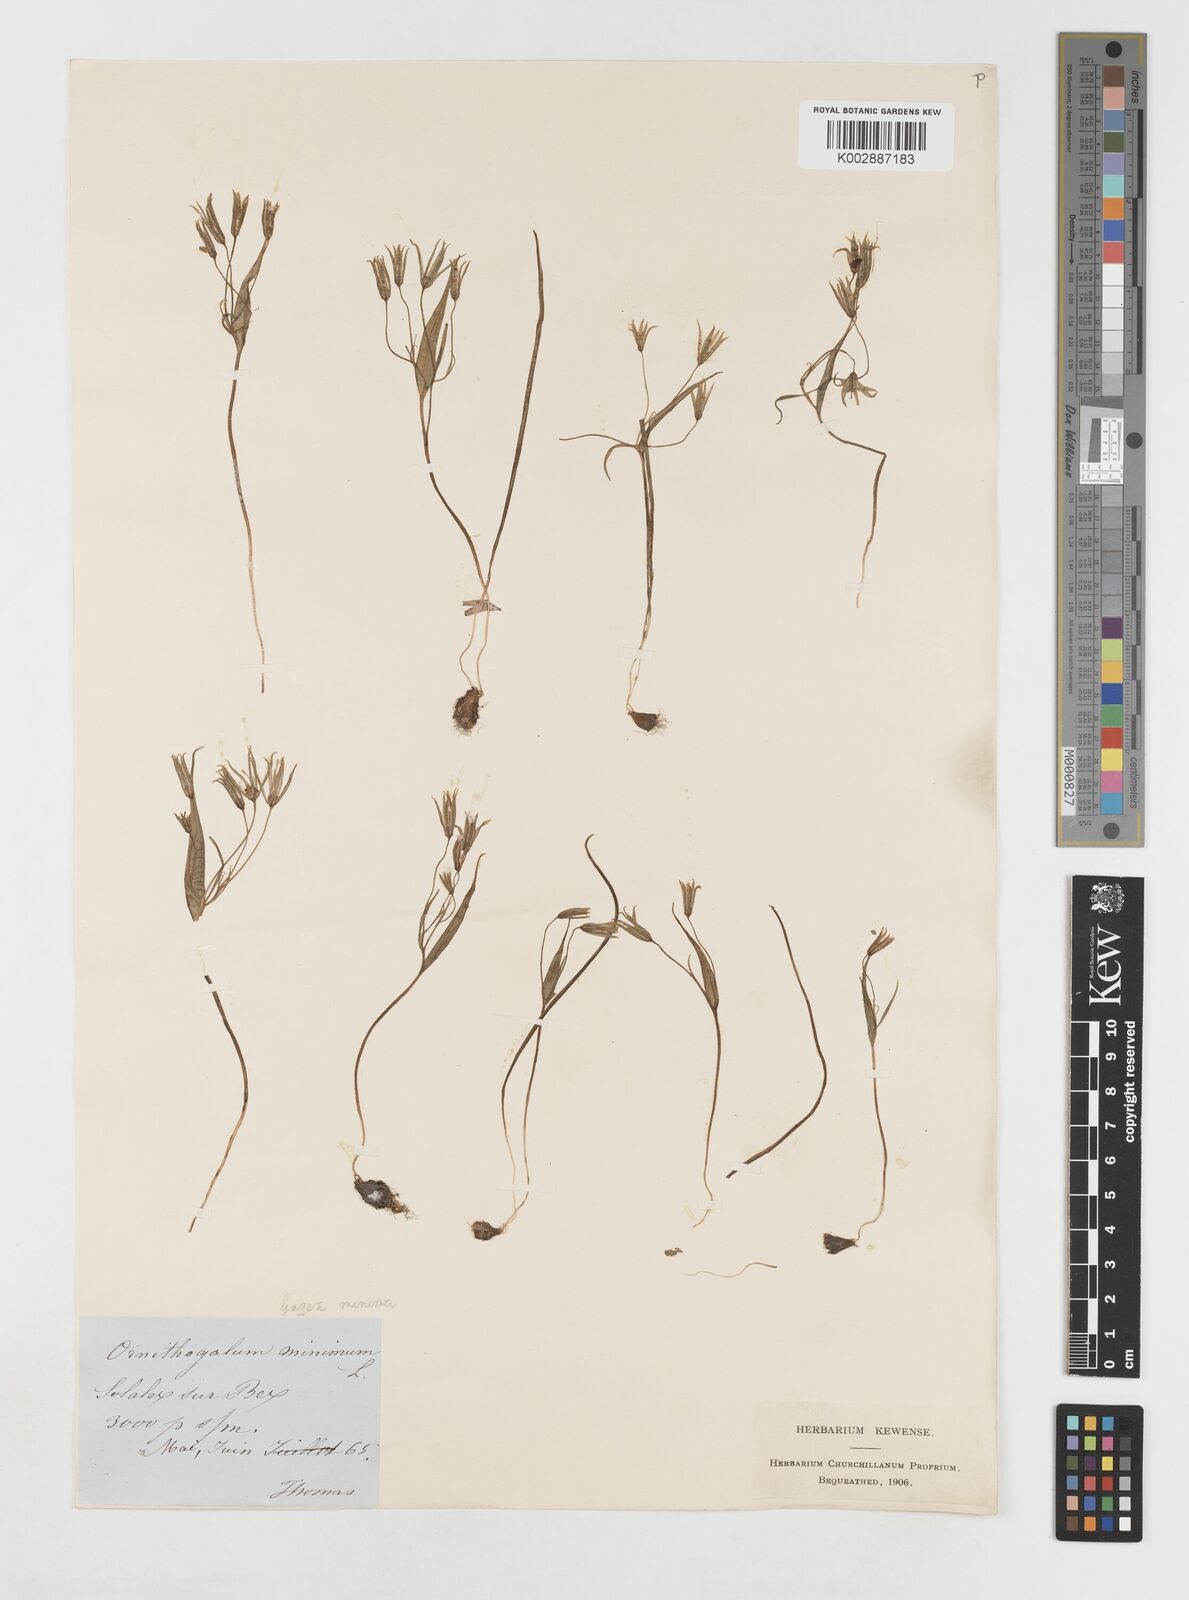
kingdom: Plantae
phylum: Tracheophyta
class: Liliopsida
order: Liliales
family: Liliaceae
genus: Gagea
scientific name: Gagea minima
